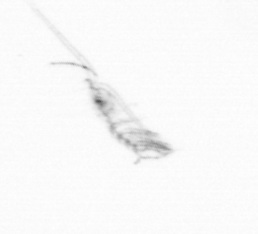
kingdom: Animalia
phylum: Arthropoda
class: Copepoda
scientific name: Copepoda
